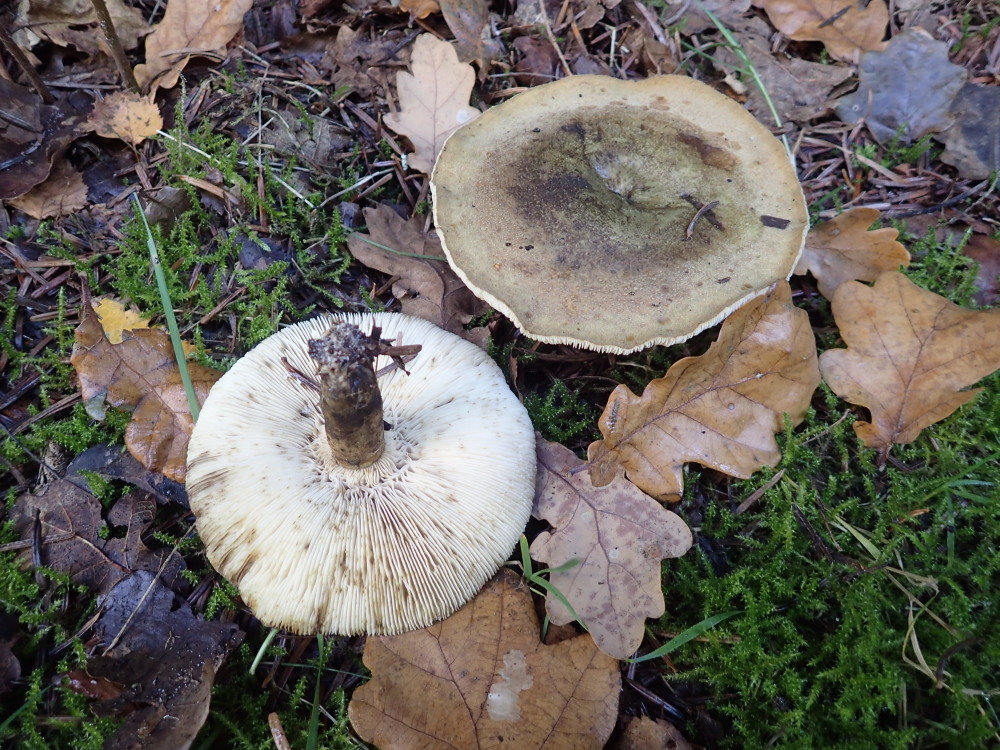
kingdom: Fungi
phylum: Basidiomycota
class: Agaricomycetes
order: Russulales
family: Russulaceae
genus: Lactarius
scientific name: Lactarius necator
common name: manddraber-mælkehat
